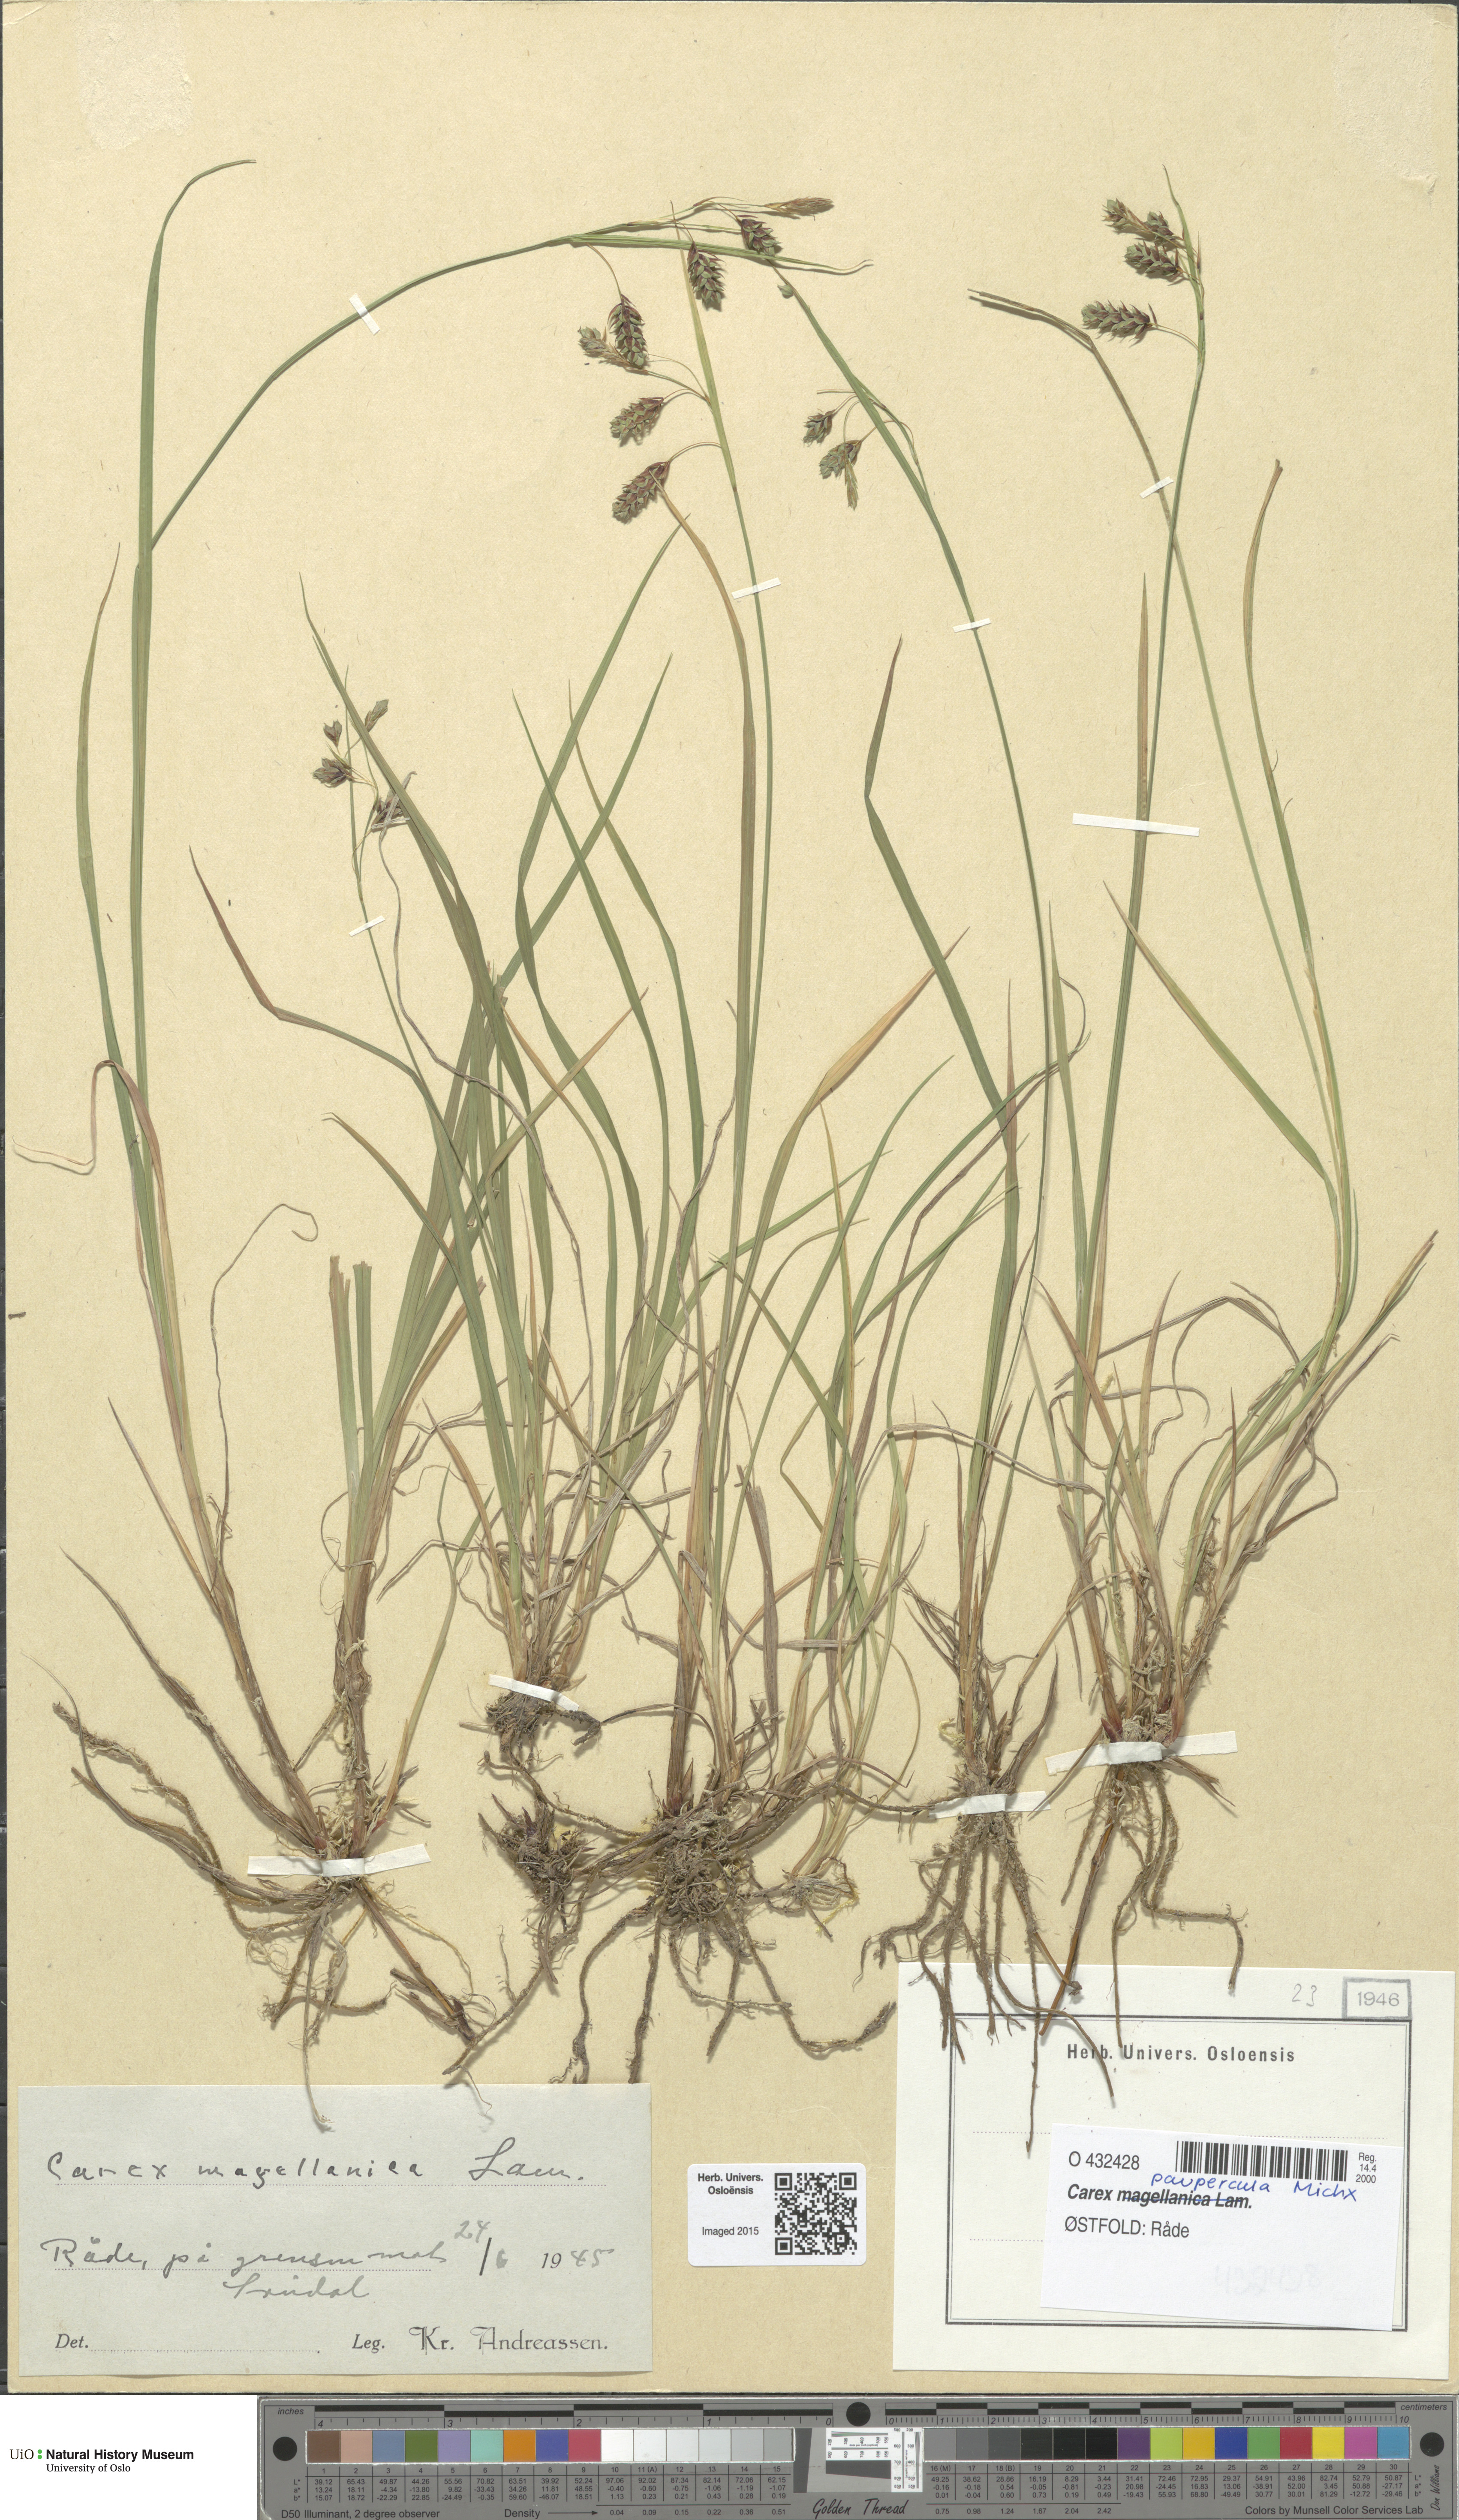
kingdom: Plantae
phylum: Tracheophyta
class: Liliopsida
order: Poales
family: Cyperaceae
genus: Carex
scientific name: Carex magellanica
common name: Bog sedge
